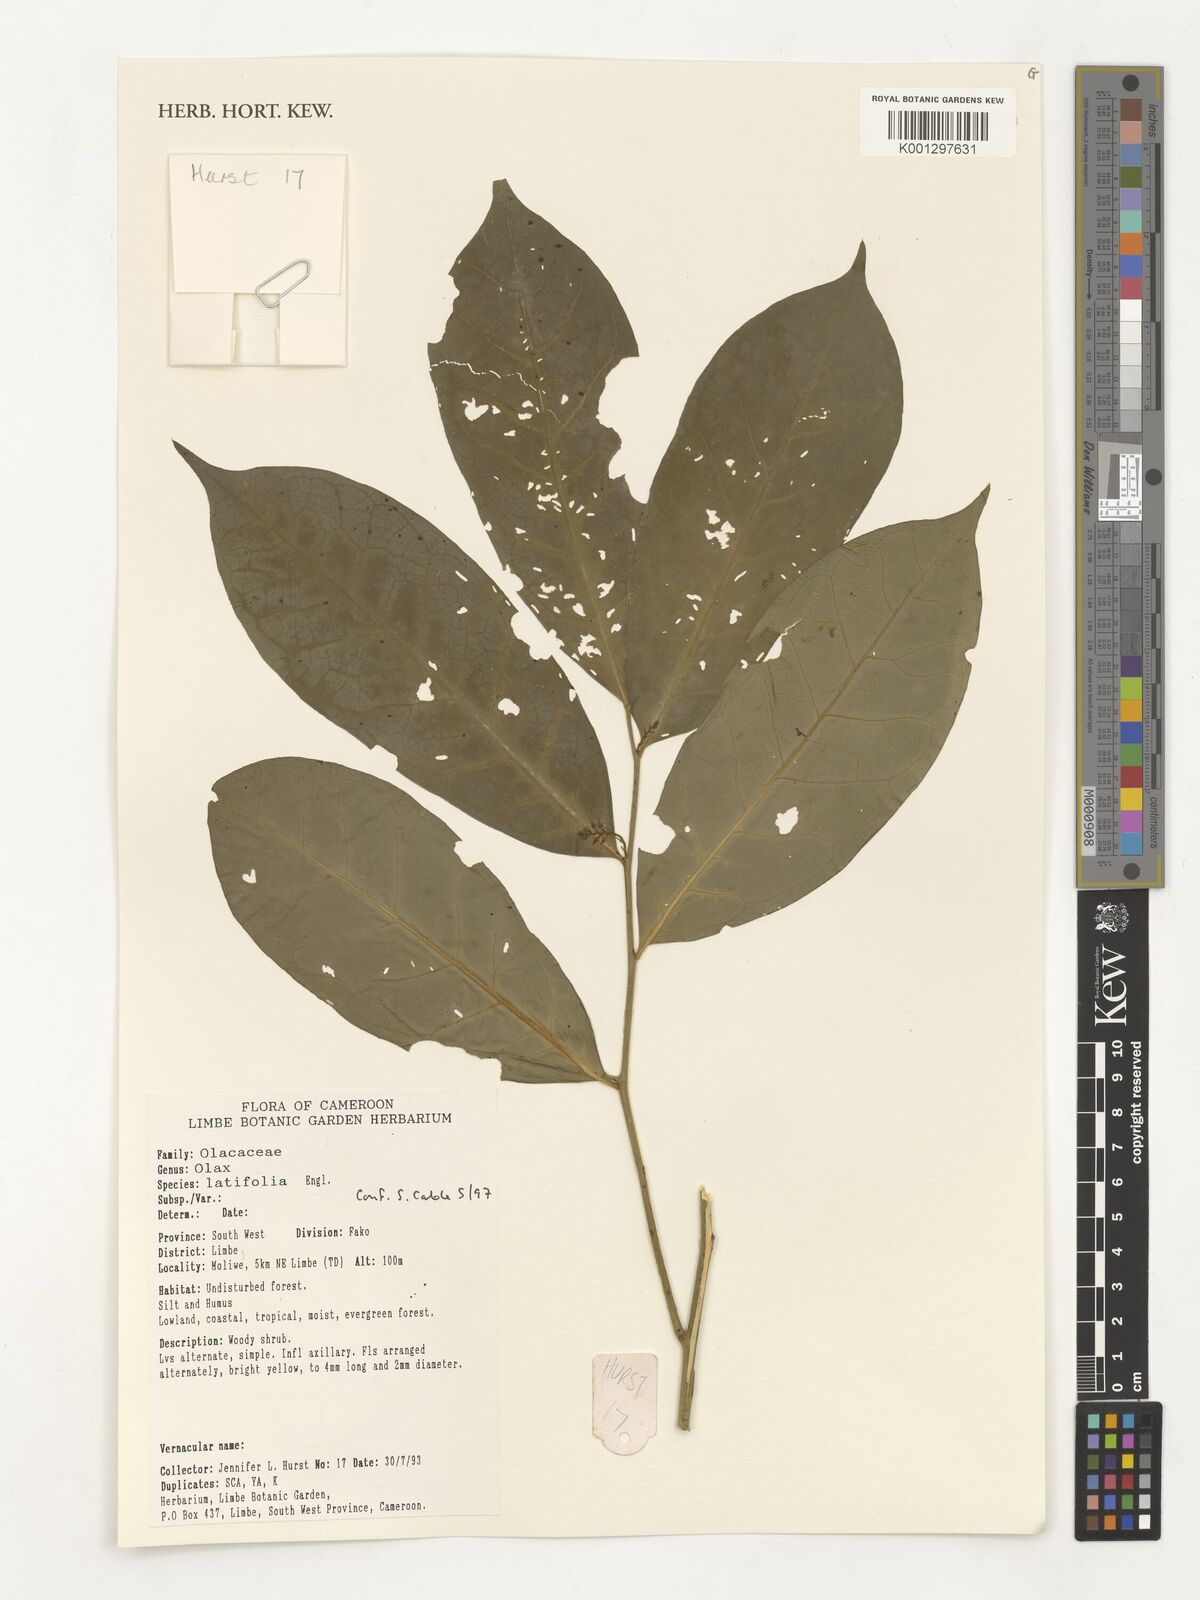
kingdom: Plantae
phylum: Tracheophyta
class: Magnoliopsida
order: Santalales
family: Olacaceae
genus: Olax
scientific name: Olax latifolia
